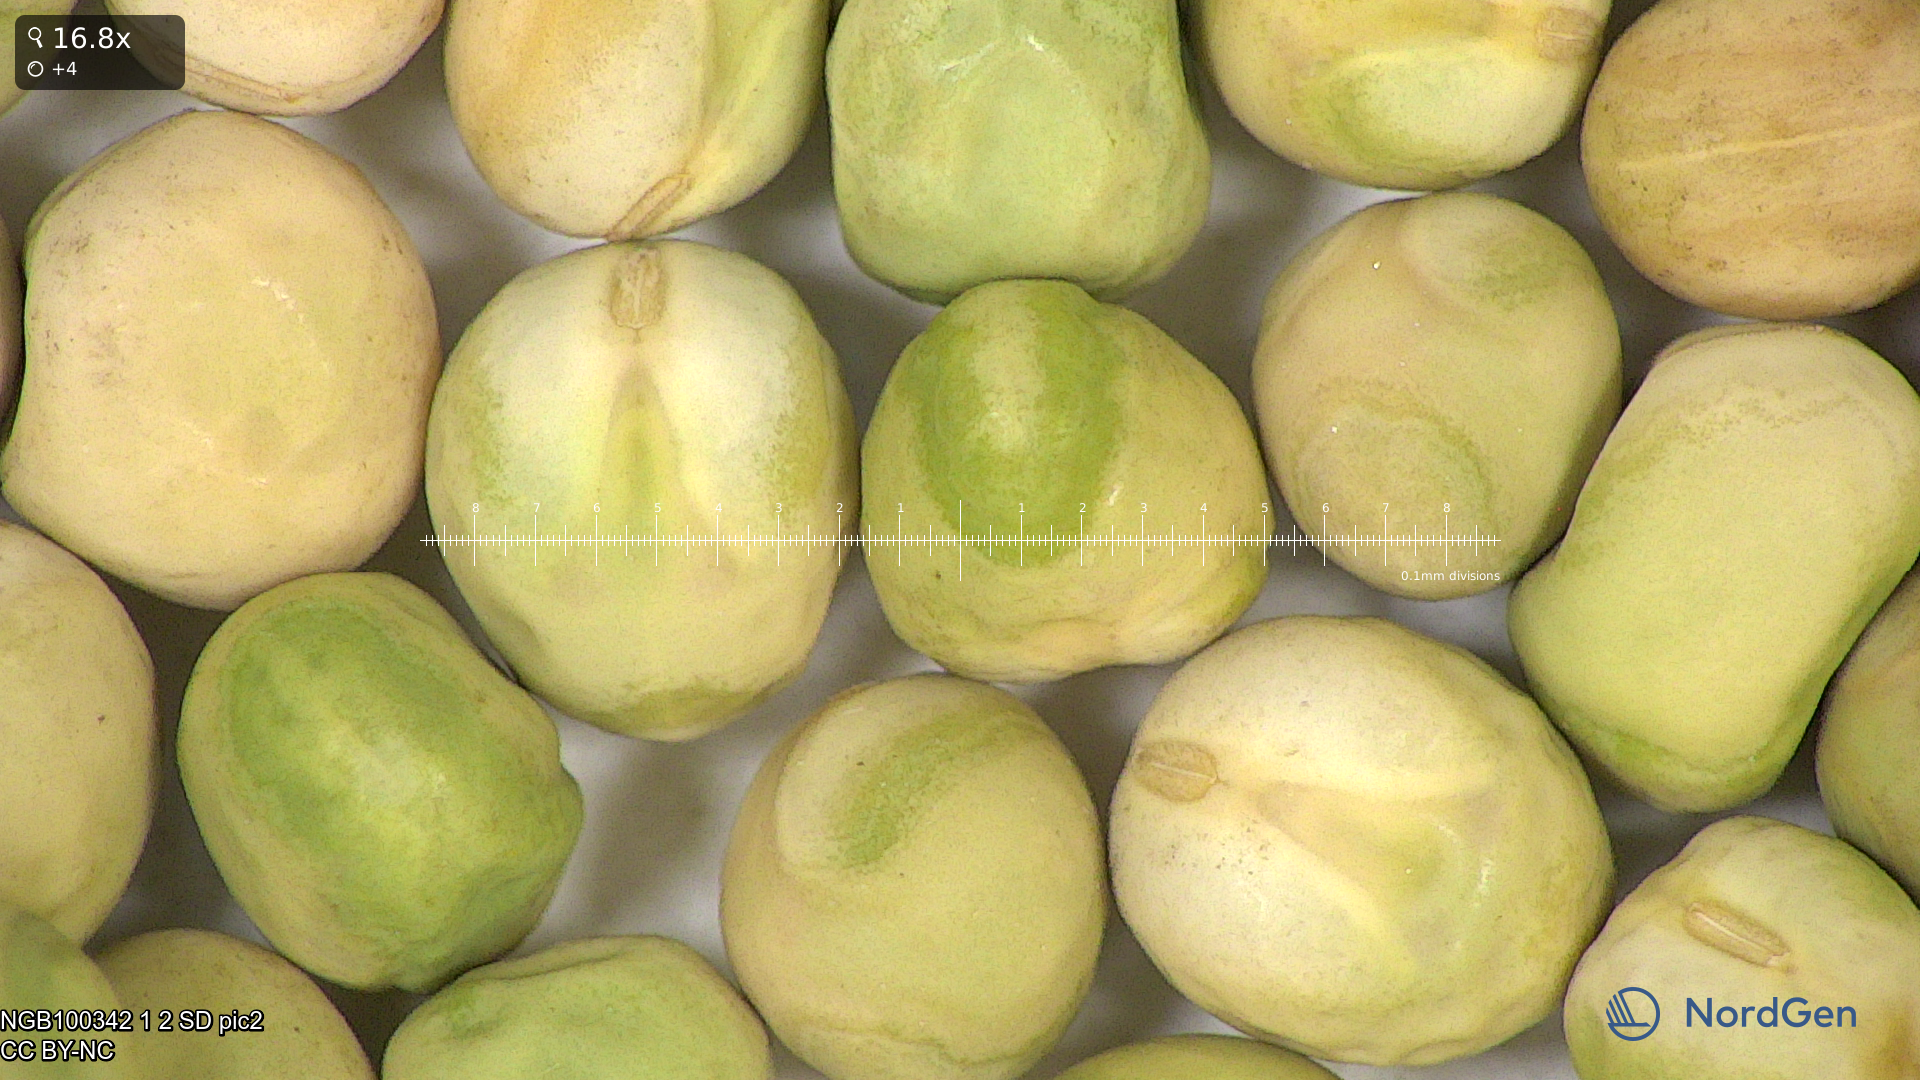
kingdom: Plantae
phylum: Tracheophyta
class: Magnoliopsida
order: Fabales
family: Fabaceae
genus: Lathyrus
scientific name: Lathyrus oleraceus
